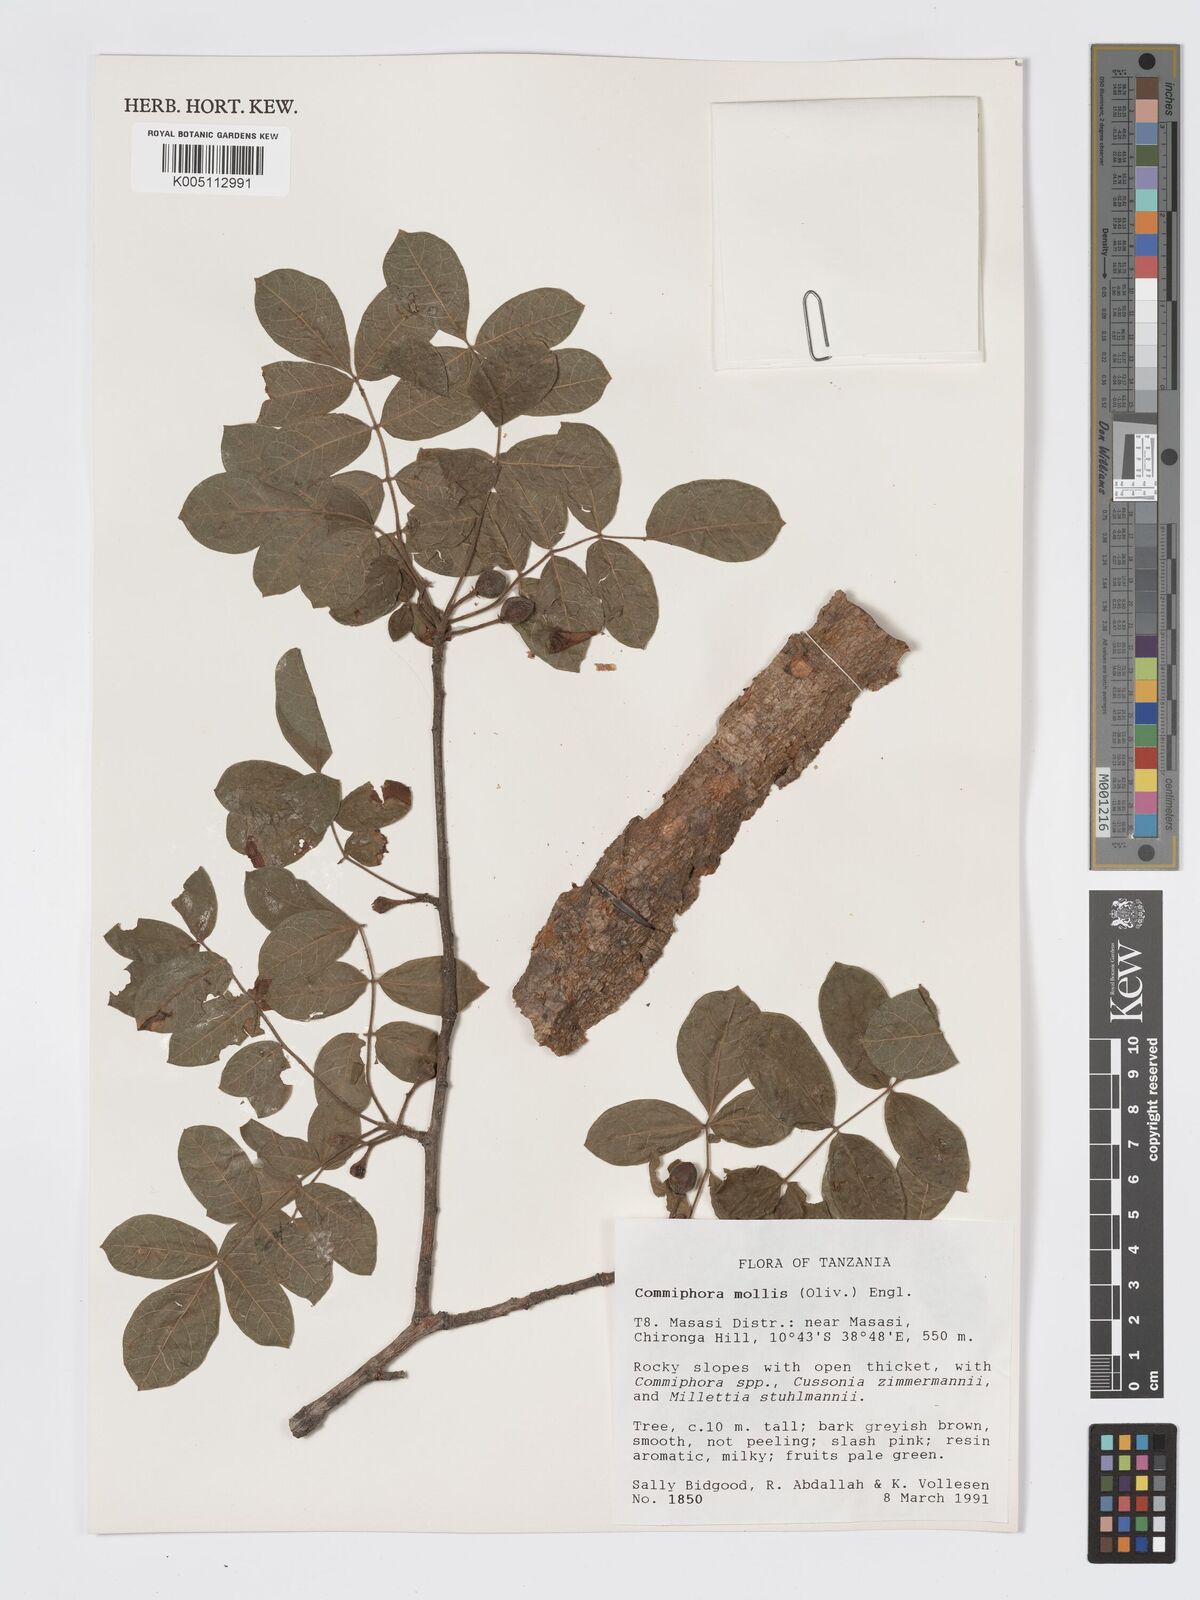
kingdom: Plantae
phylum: Tracheophyta
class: Magnoliopsida
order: Sapindales
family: Burseraceae
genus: Commiphora
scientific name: Commiphora
